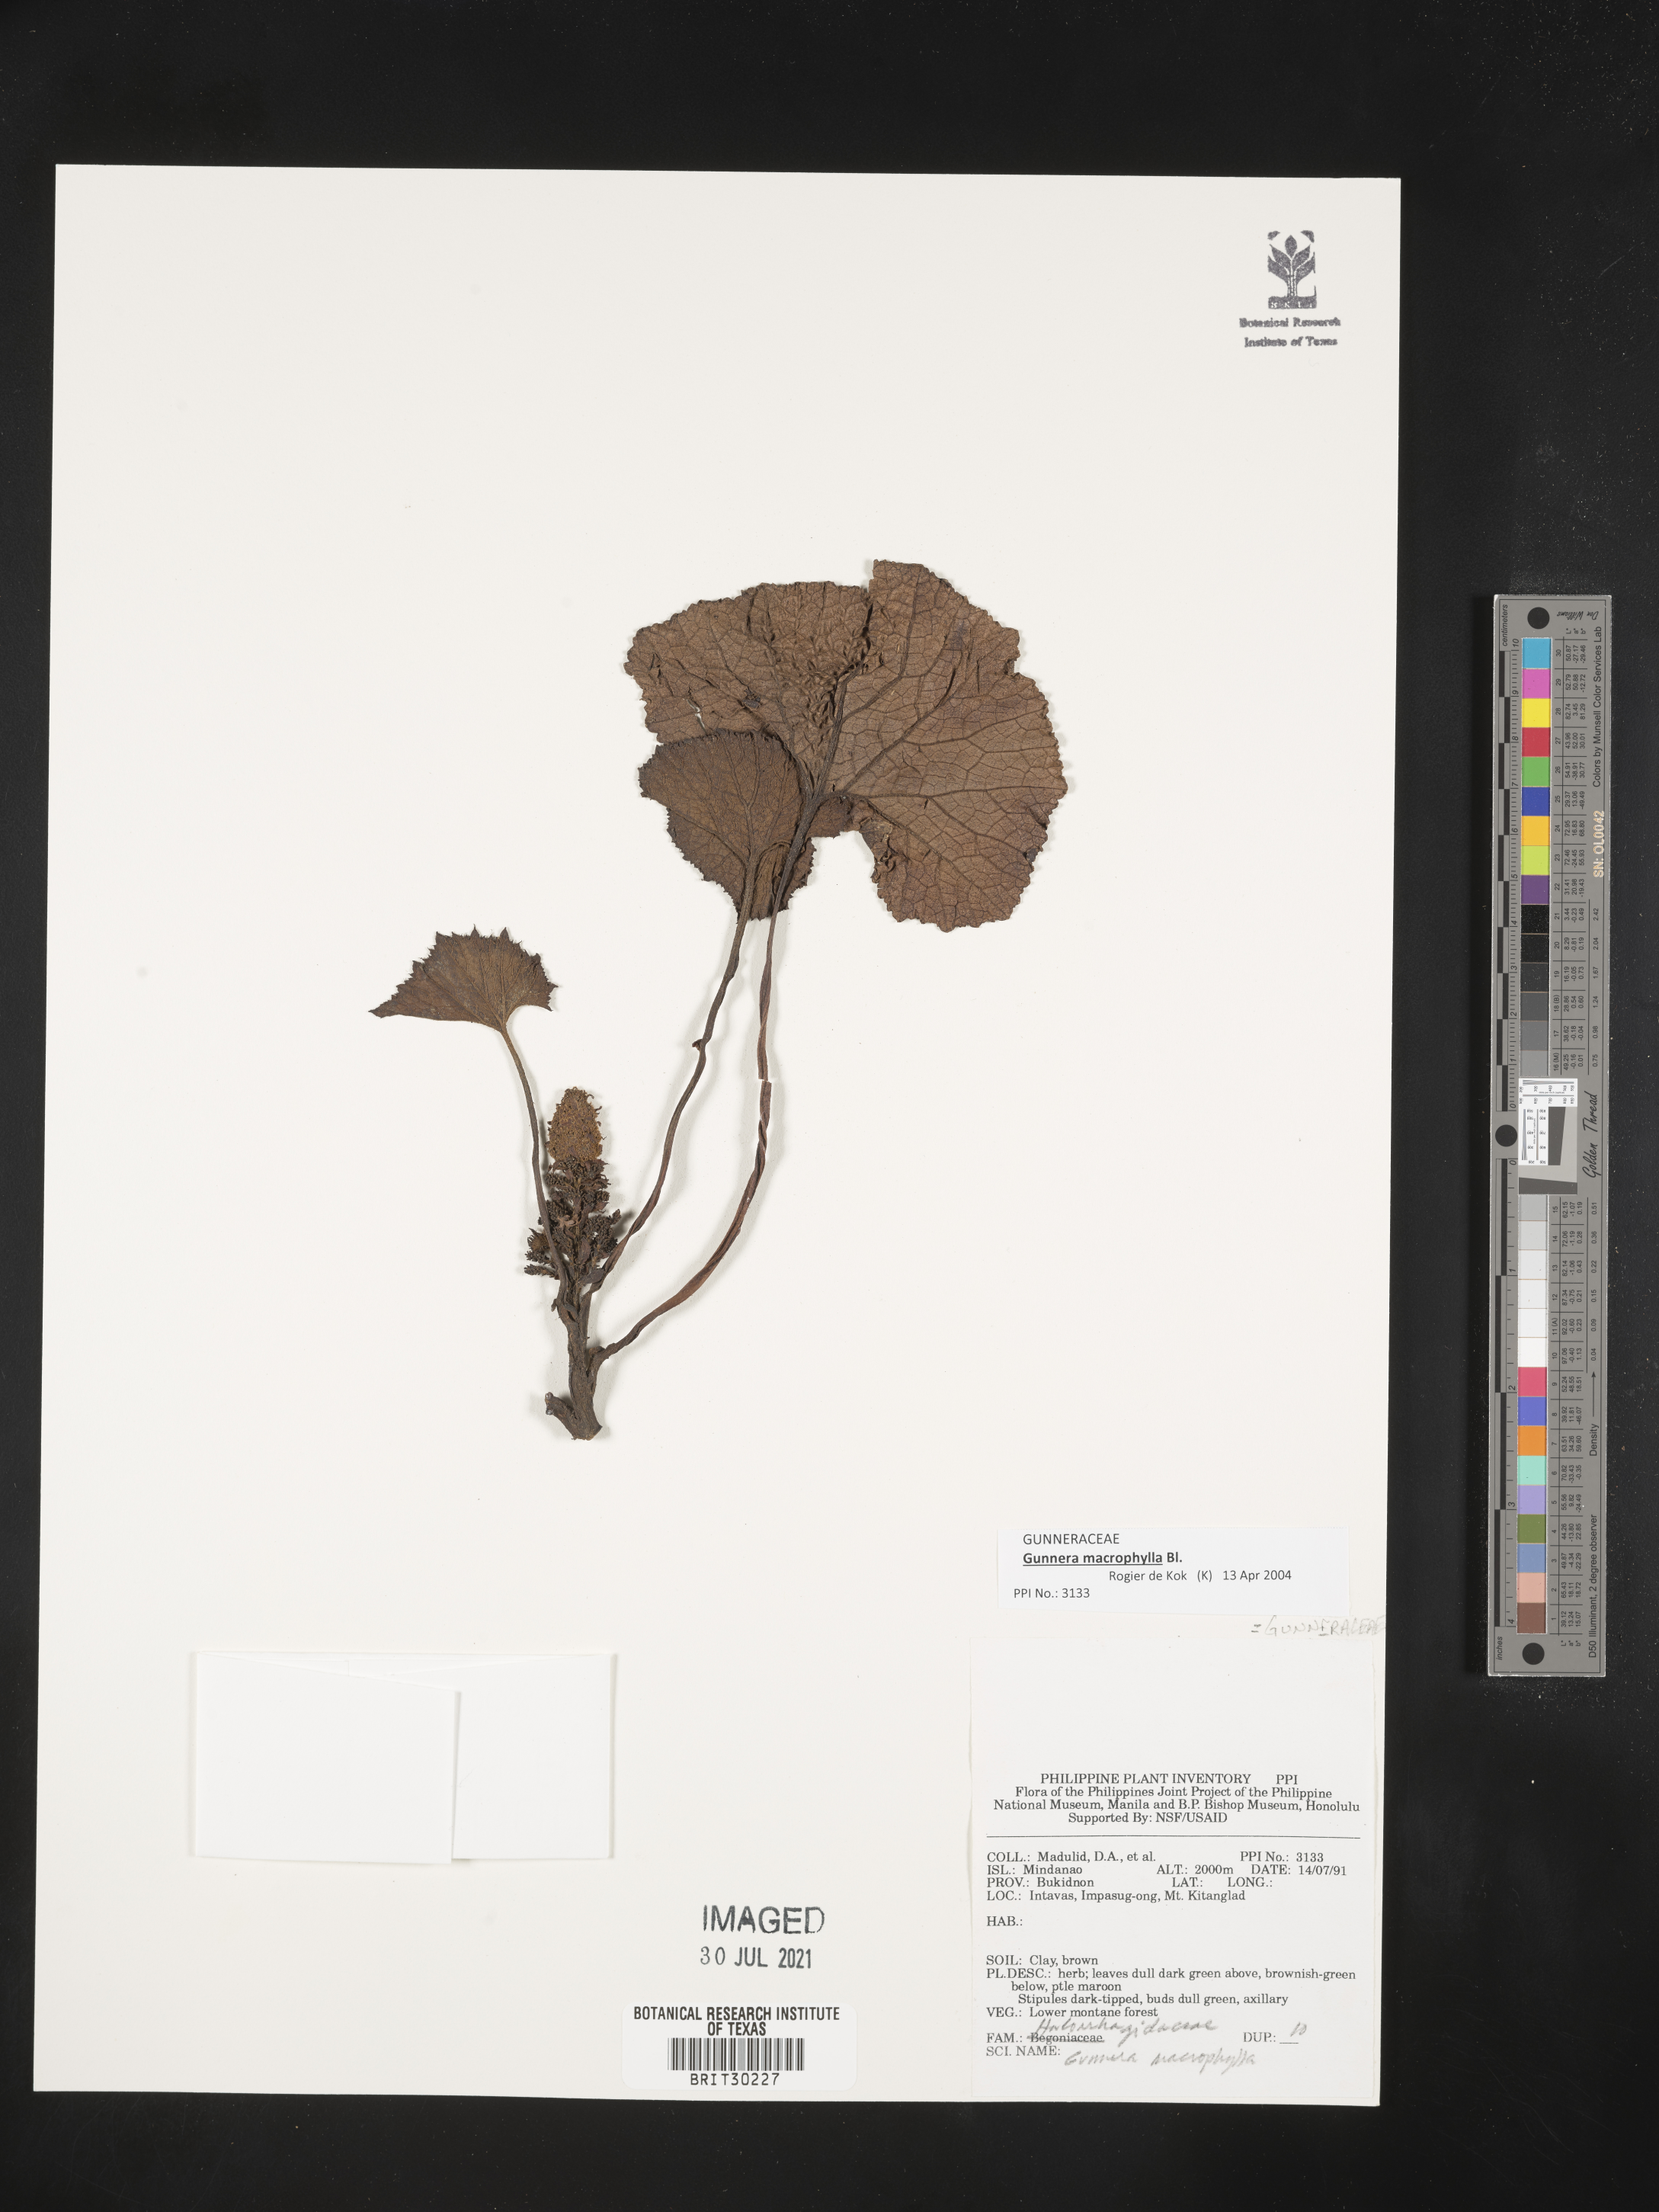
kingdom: Plantae
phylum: Tracheophyta
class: Magnoliopsida
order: Gunnerales
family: Gunneraceae
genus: Gunnera
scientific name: Gunnera macrophylla
